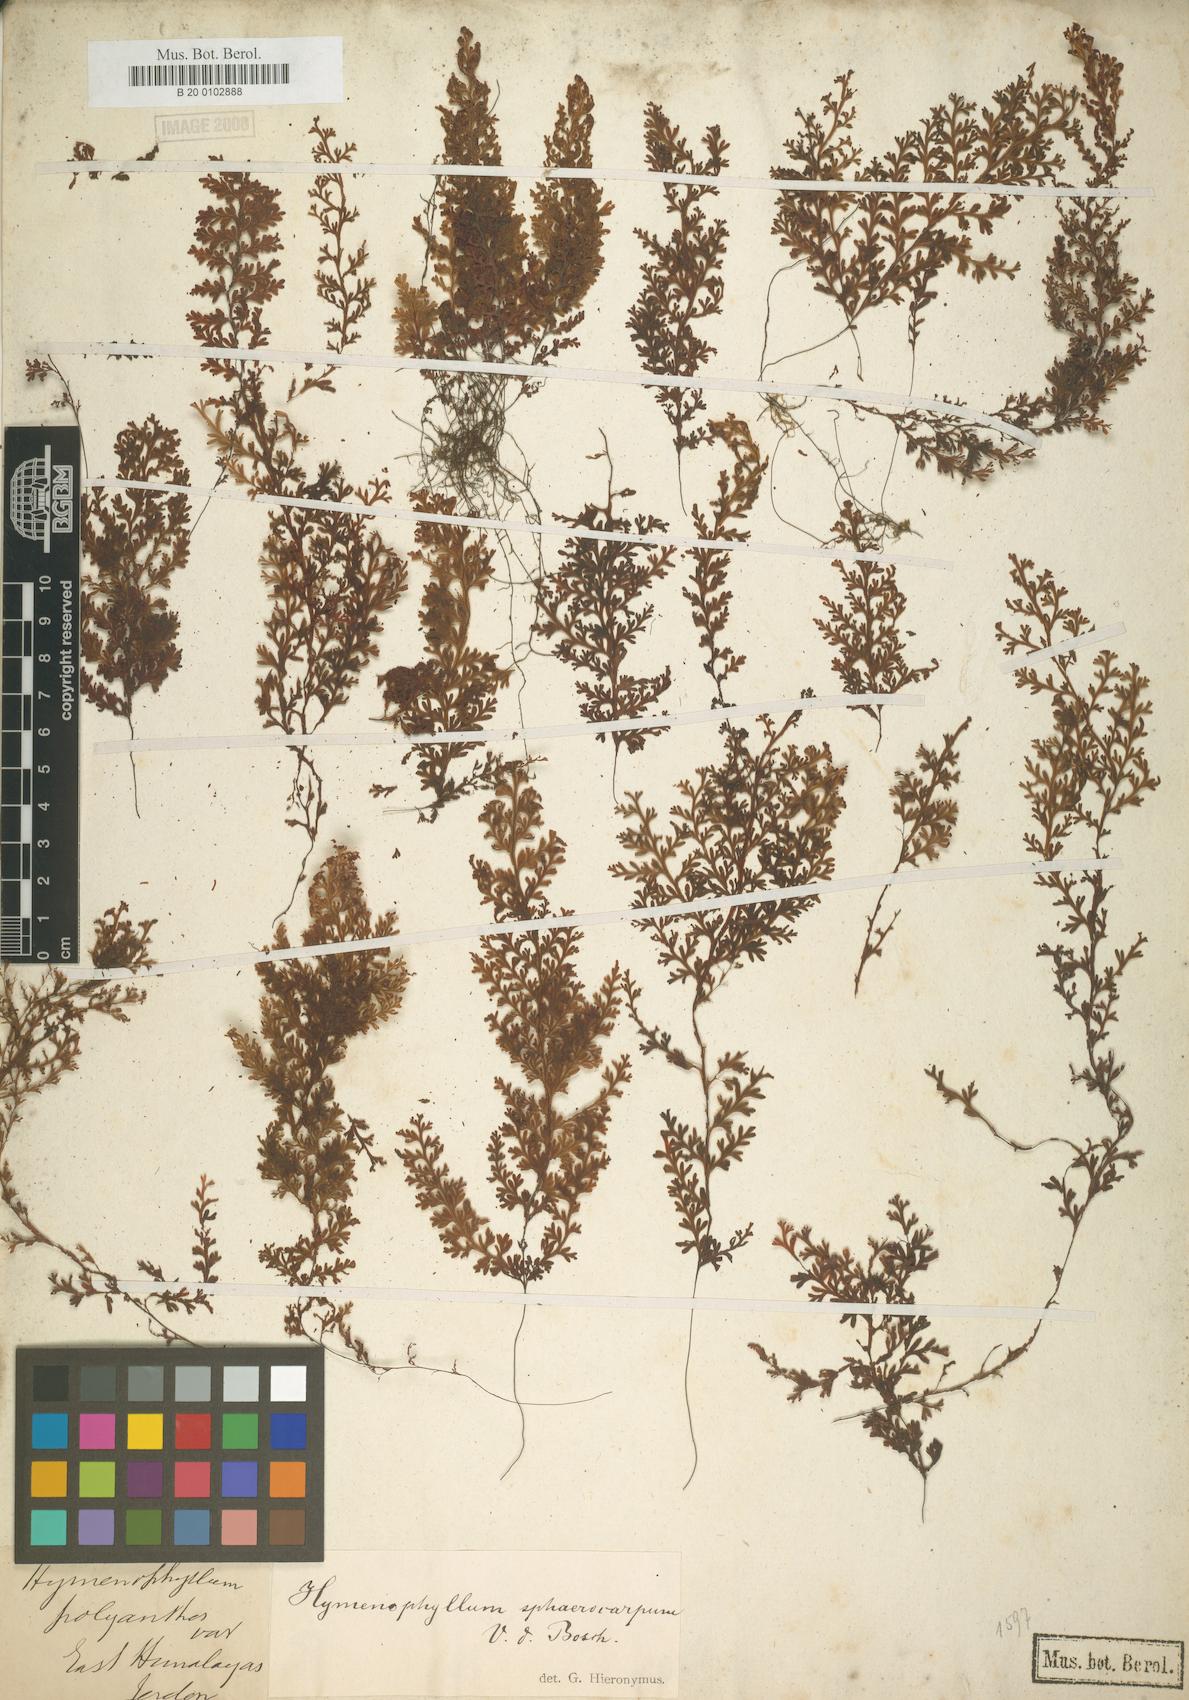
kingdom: Plantae
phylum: Tracheophyta
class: Polypodiopsida
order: Hymenophyllales
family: Hymenophyllaceae
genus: Hymenophyllum
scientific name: Hymenophyllum fumarioides
